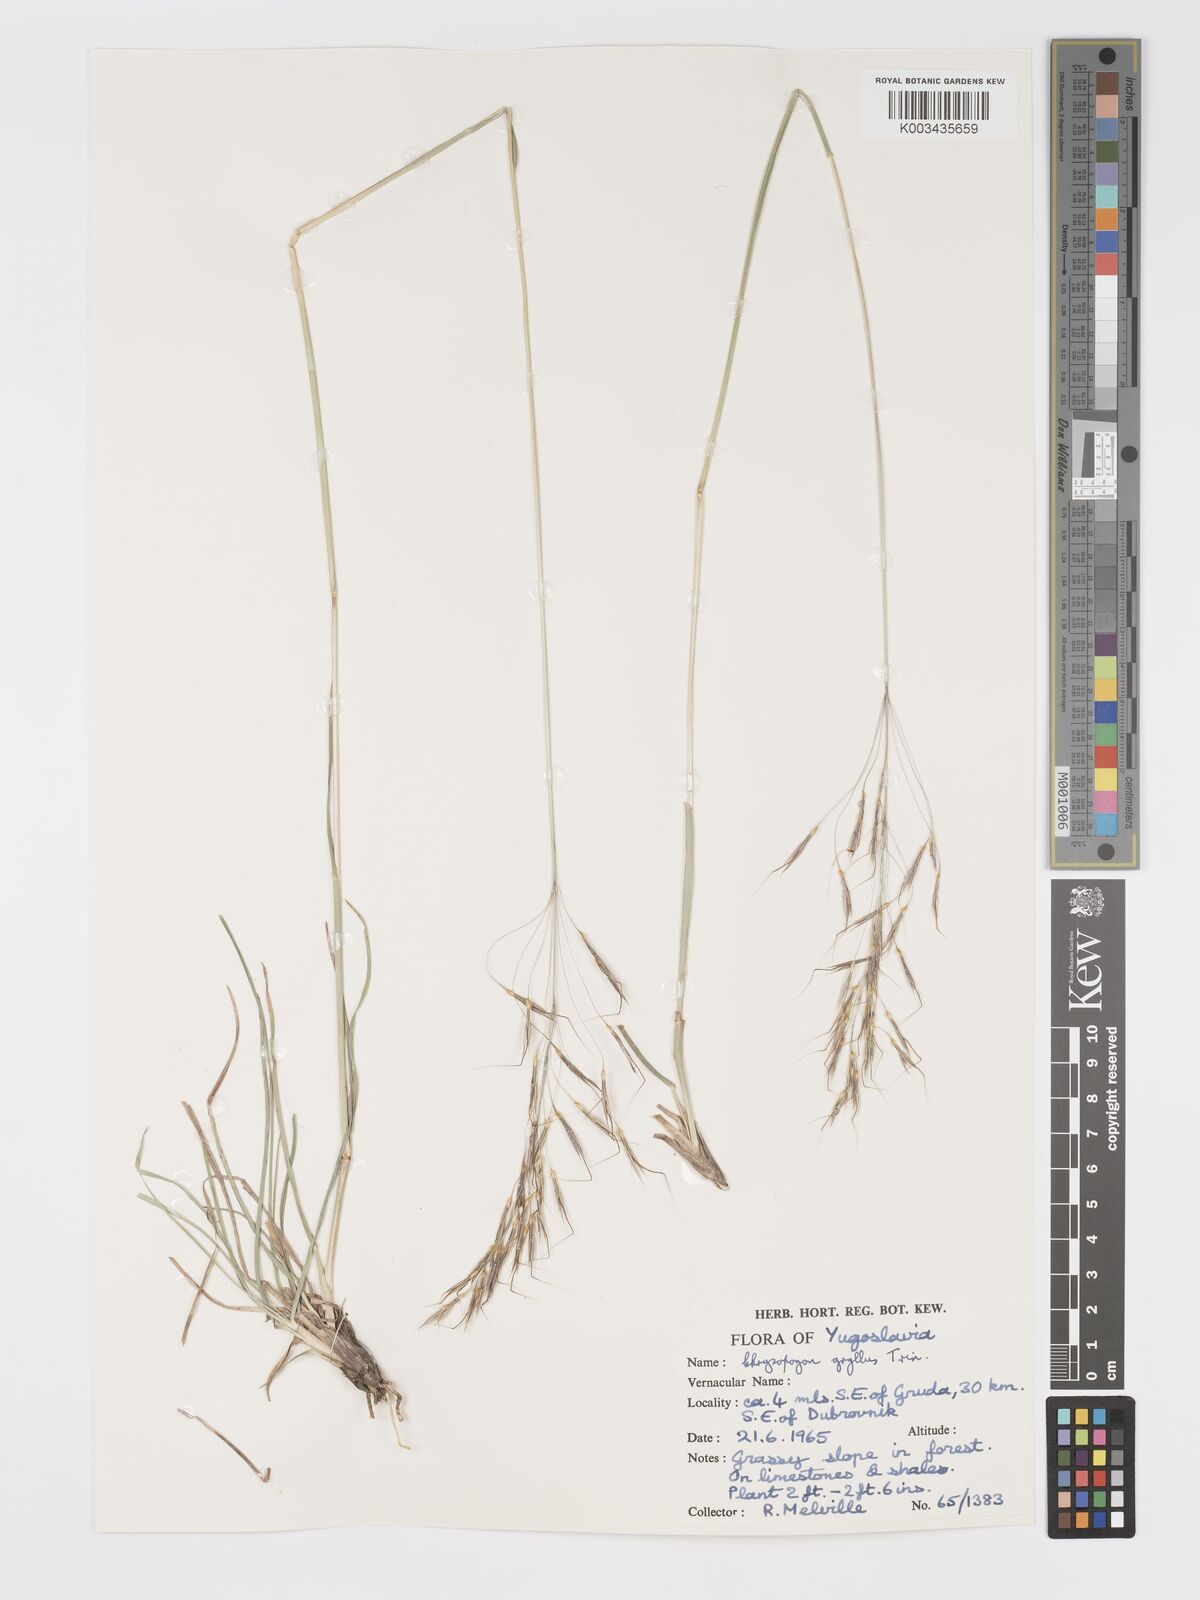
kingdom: Plantae
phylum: Tracheophyta
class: Liliopsida
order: Poales
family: Poaceae
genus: Chrysopogon
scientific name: Chrysopogon gryllus
